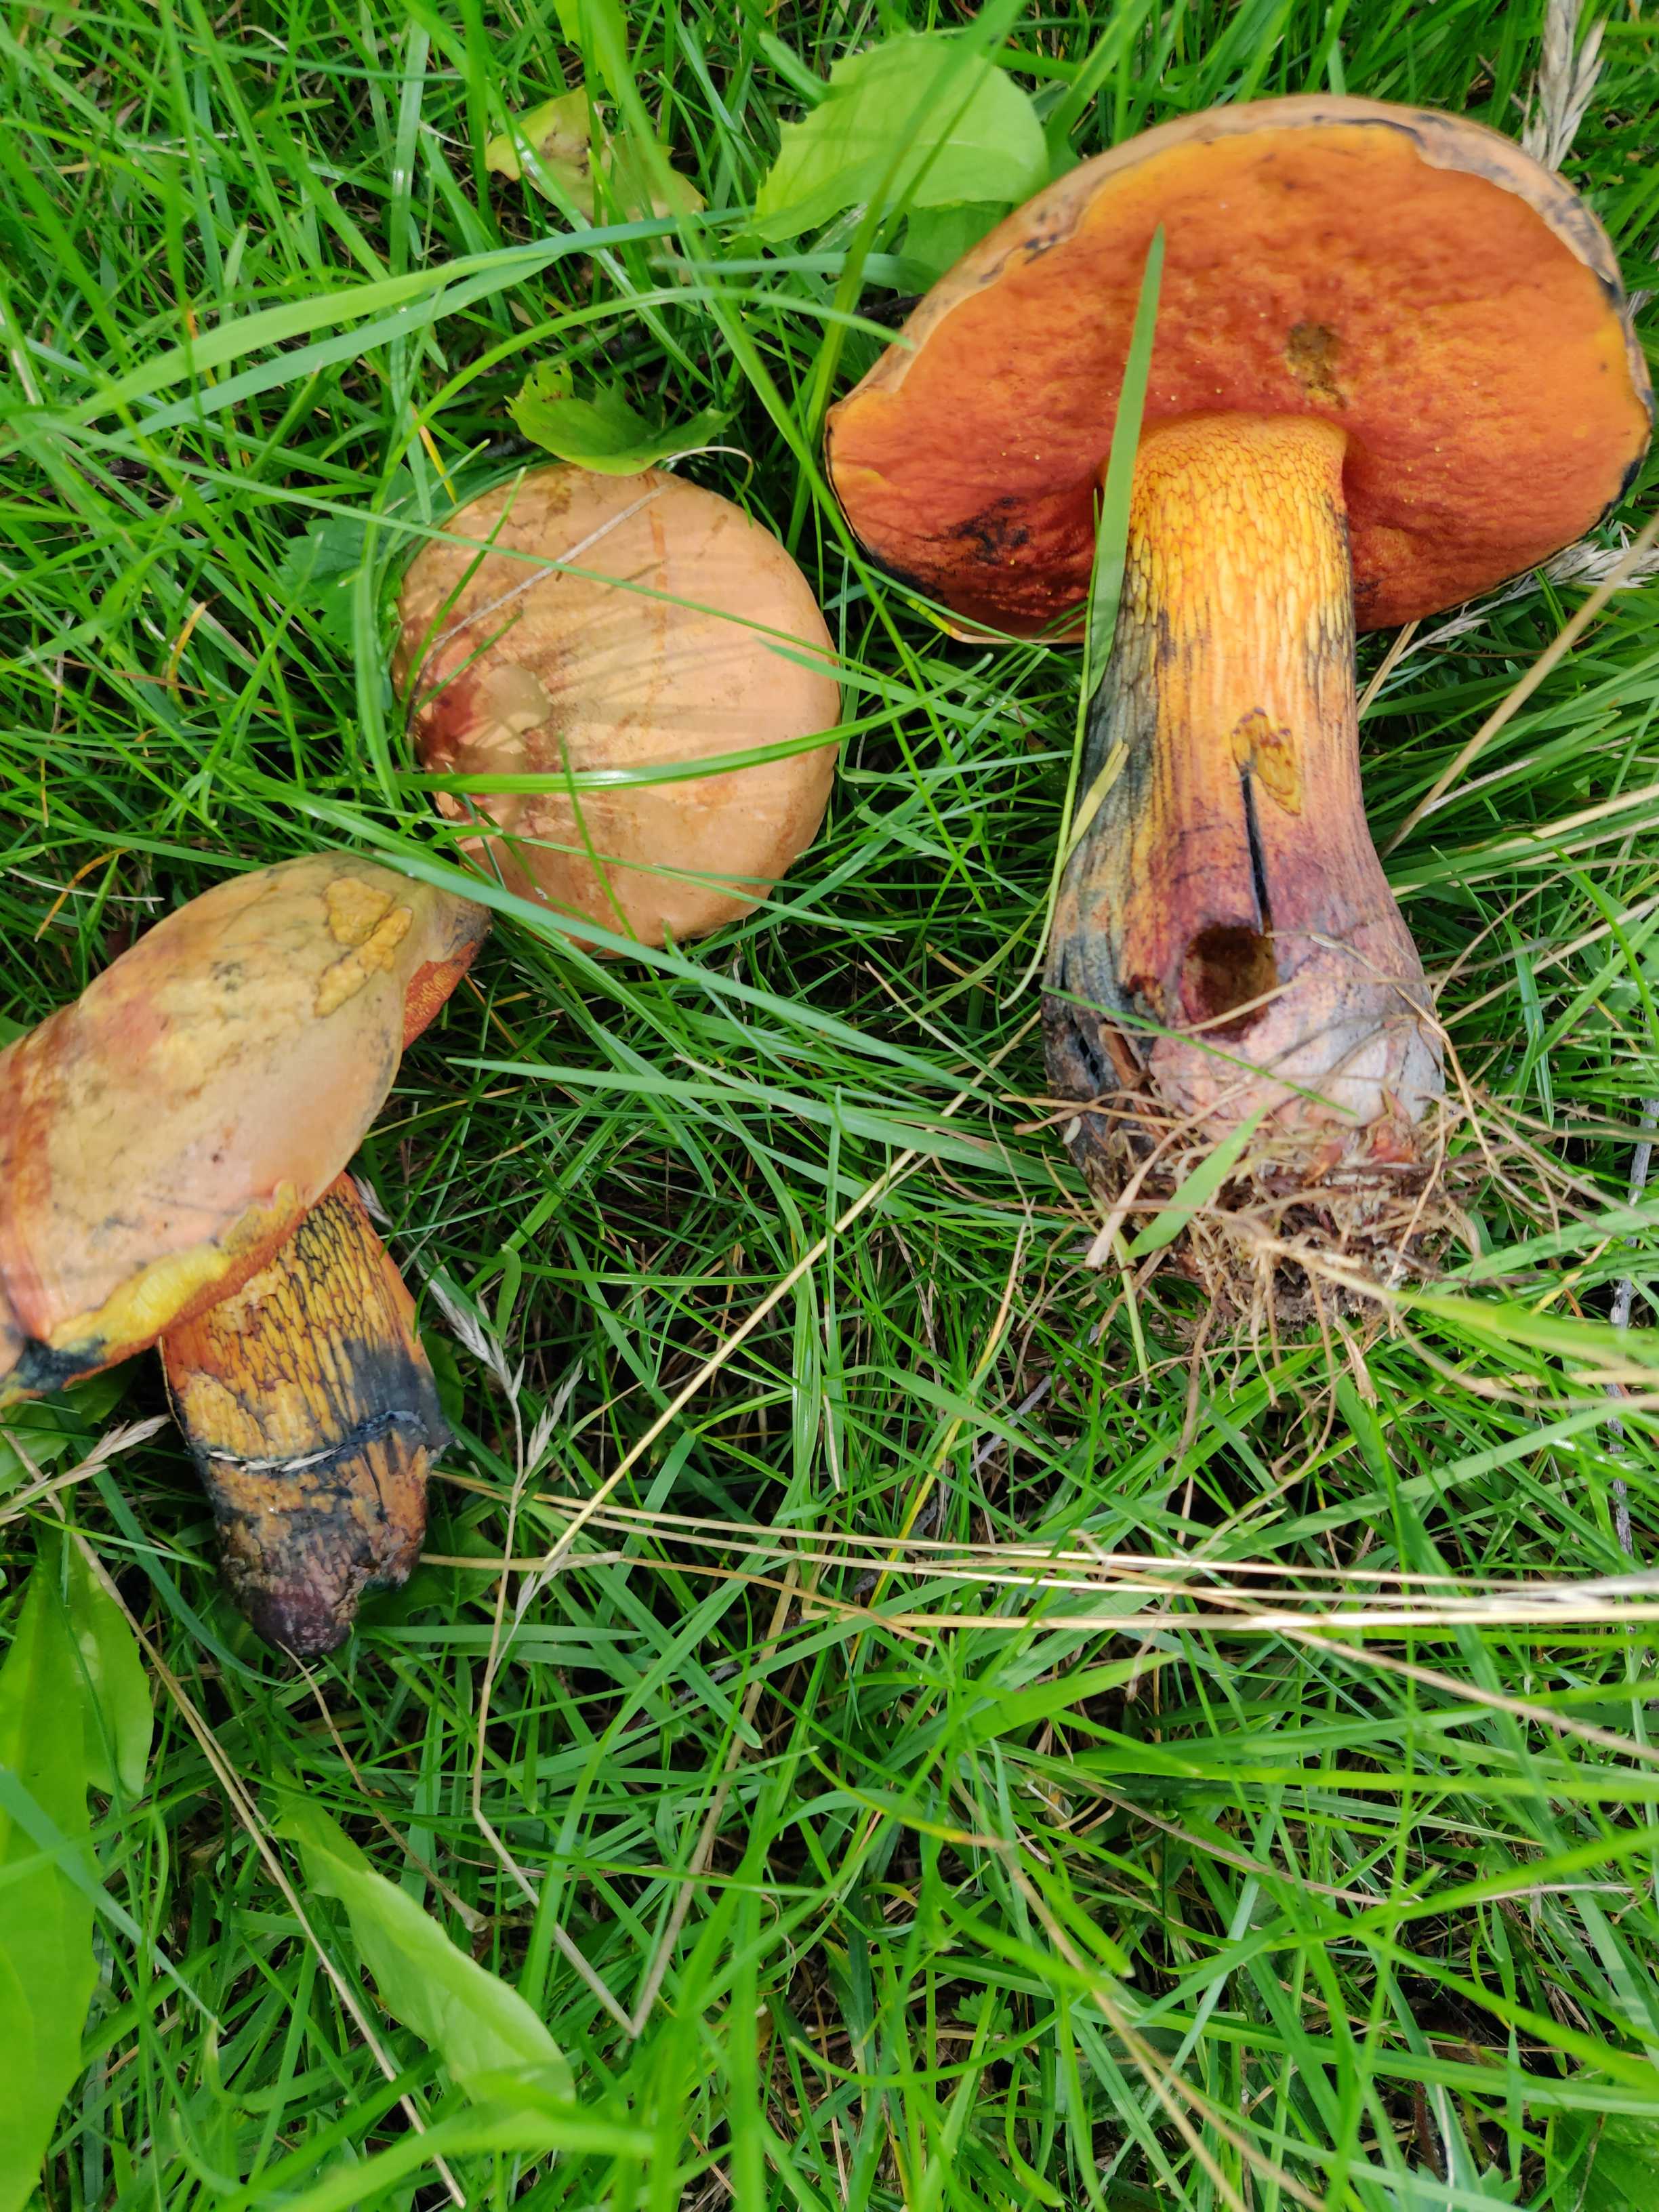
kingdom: Fungi
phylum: Basidiomycota
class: Agaricomycetes
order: Boletales
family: Boletaceae
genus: Suillellus
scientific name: Suillellus luridus
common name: netstokket indigorørhat
